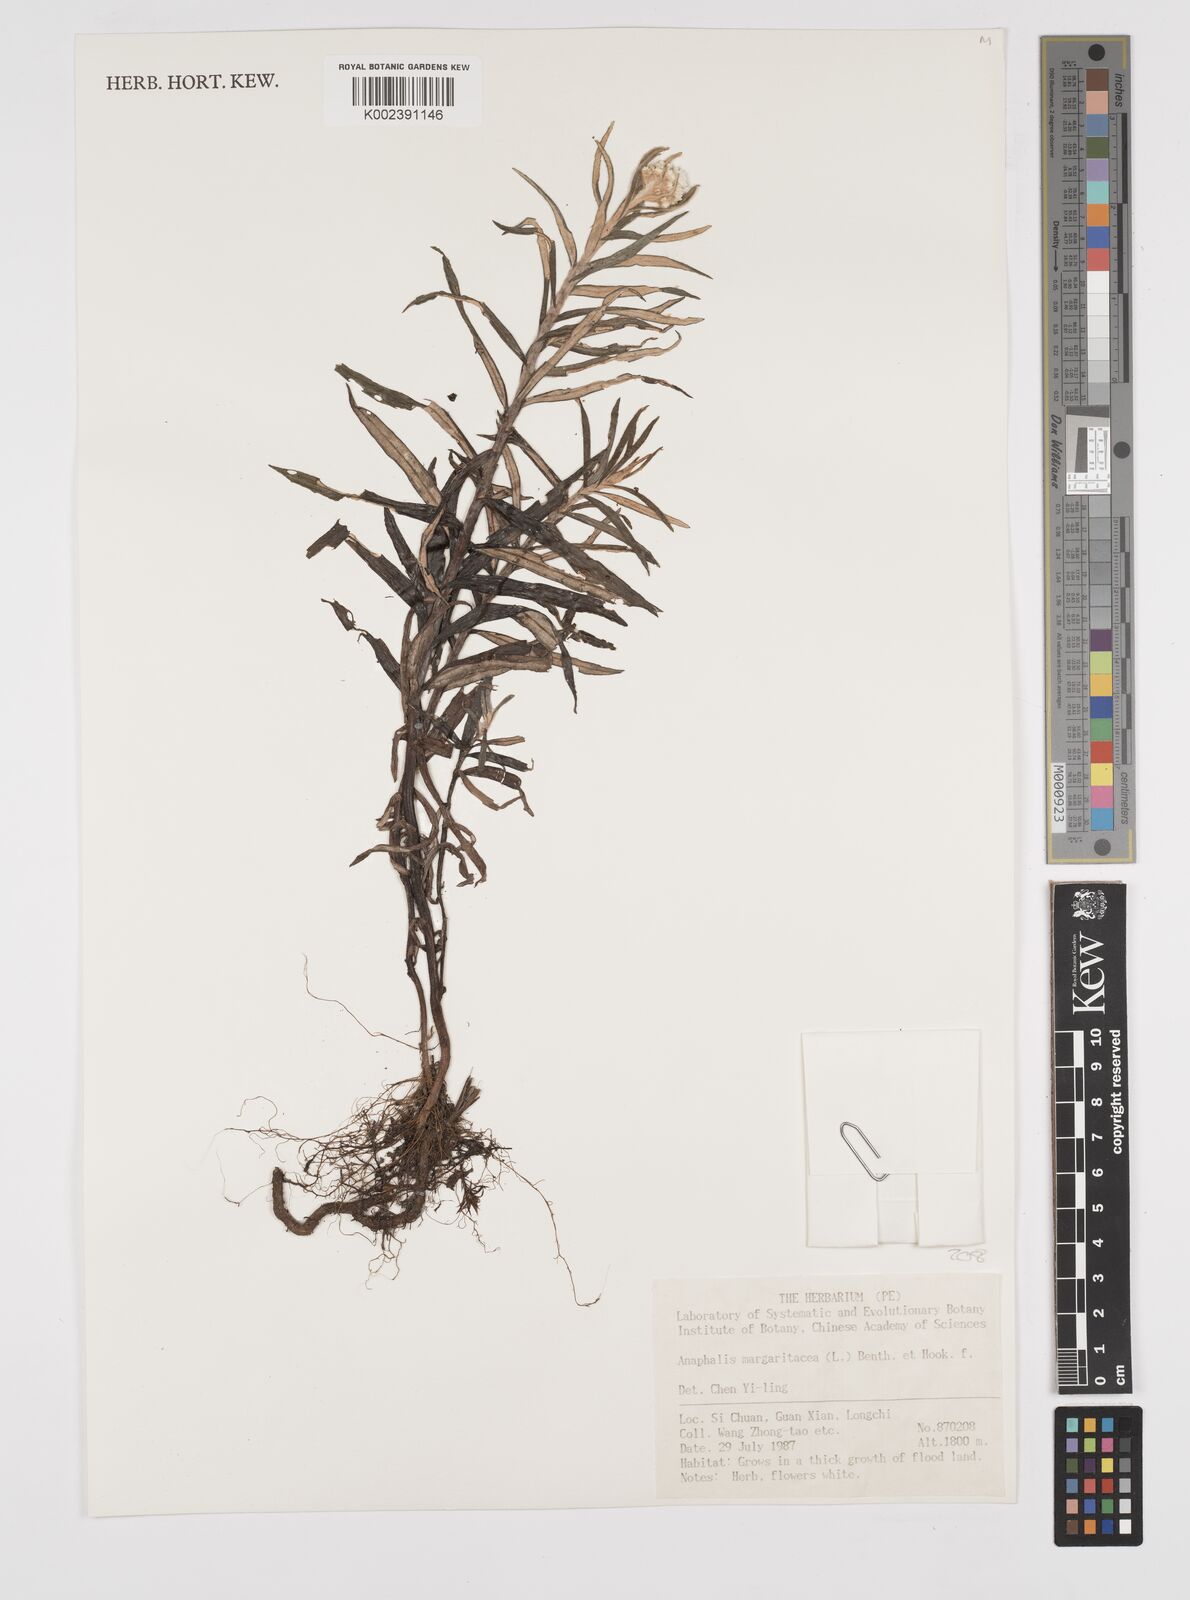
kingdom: Plantae
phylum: Tracheophyta
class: Magnoliopsida
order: Asterales
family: Asteraceae
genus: Anaphalis
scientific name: Anaphalis margaritacea
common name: Pearly everlasting
